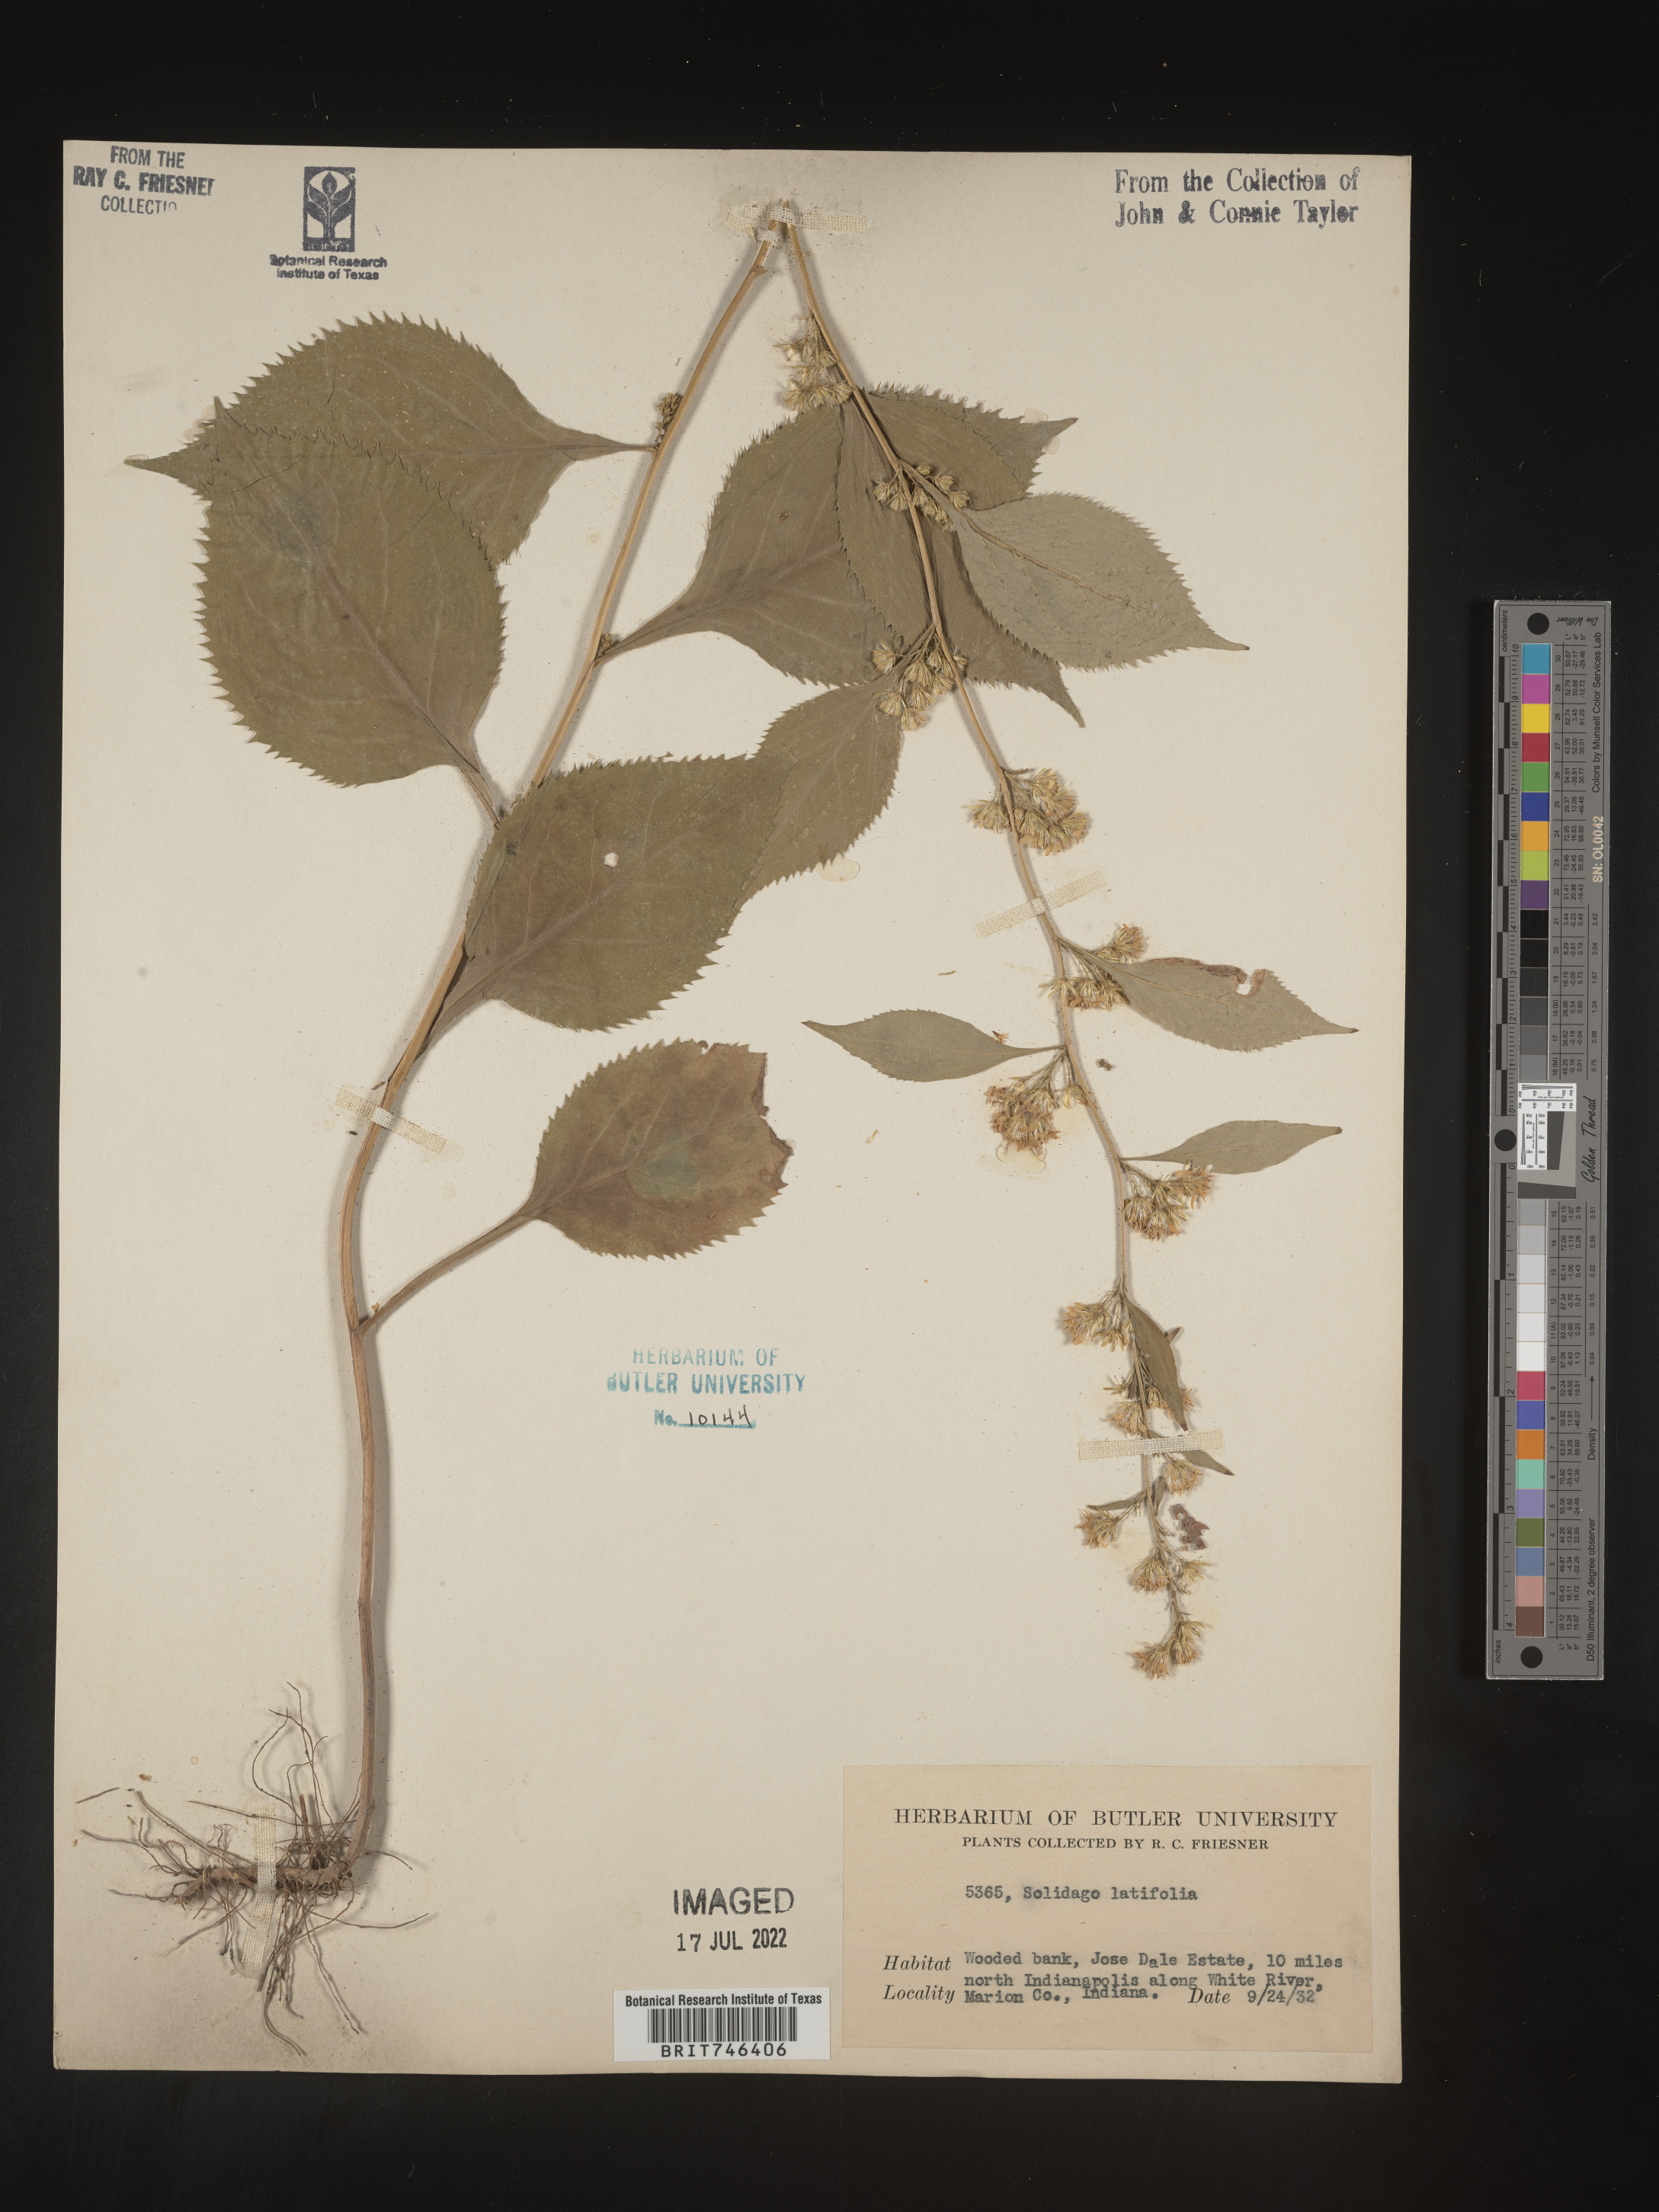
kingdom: Plantae
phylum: Tracheophyta
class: Magnoliopsida
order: Asterales
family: Asteraceae
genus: Solidago
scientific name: Solidago flexicaulis
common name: Zig-zag goldenrod
